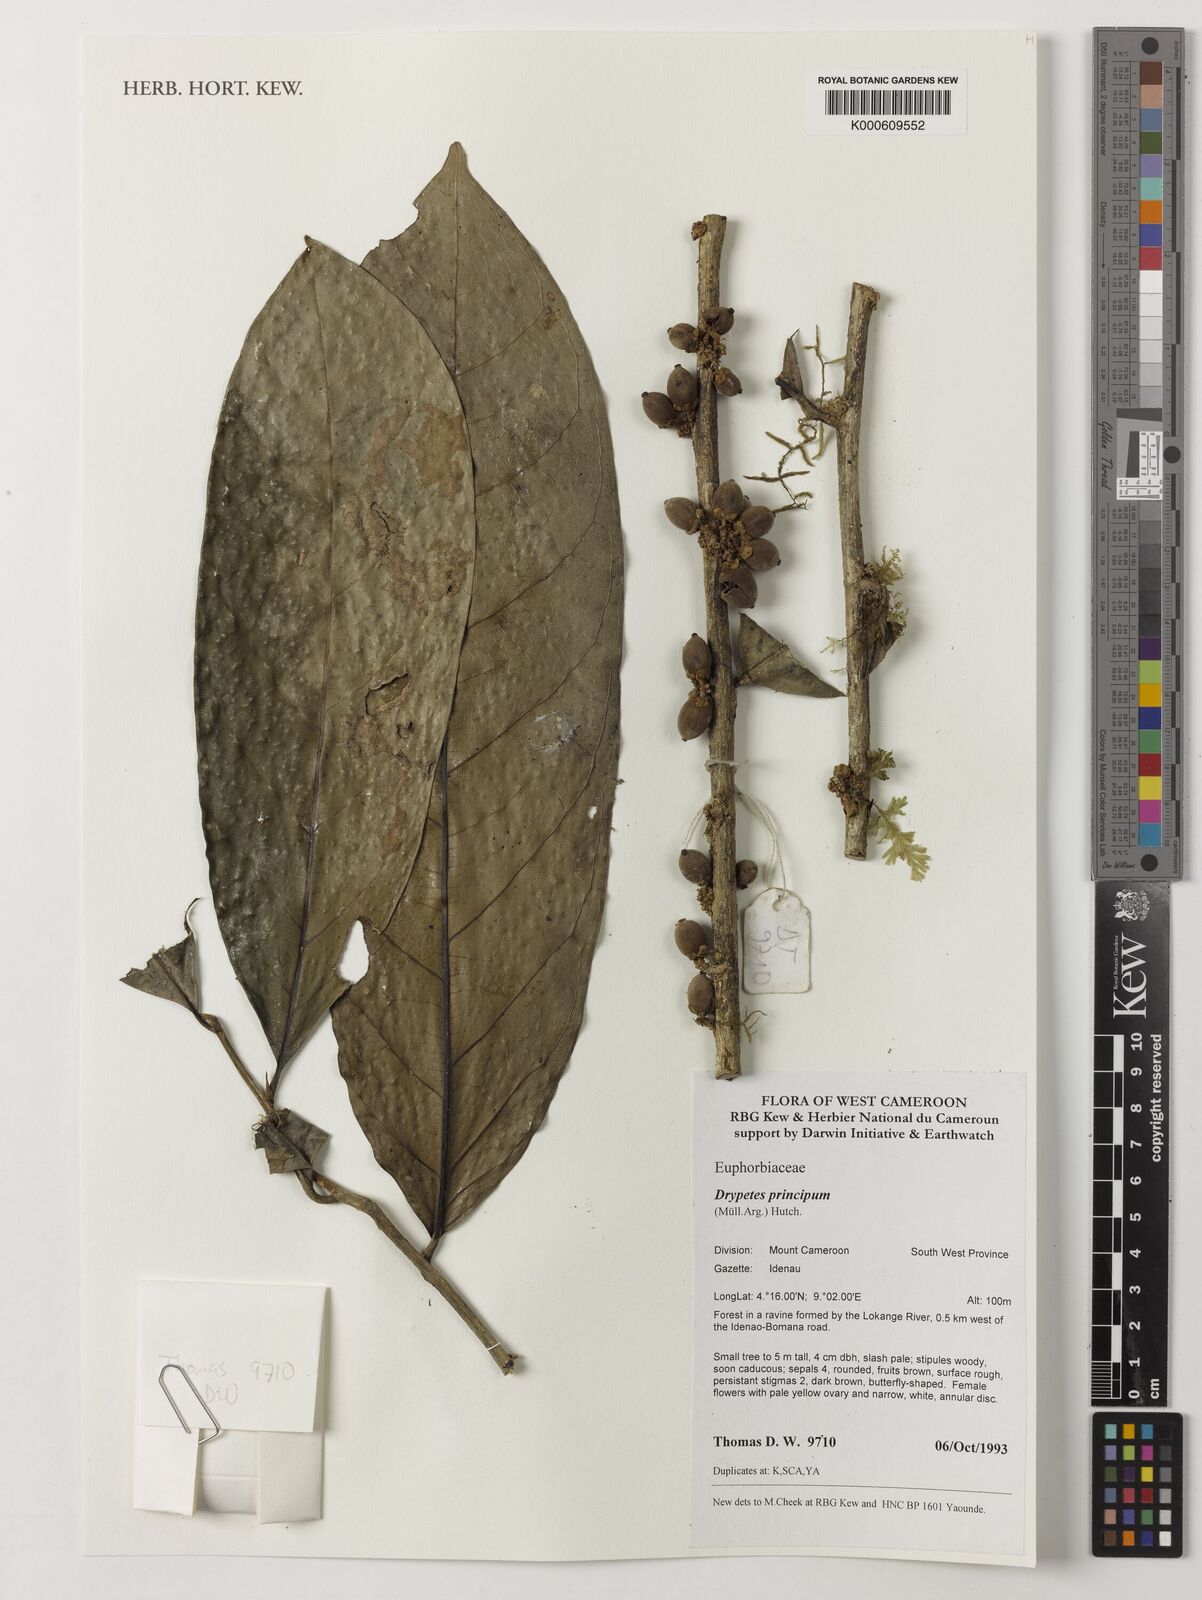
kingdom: Plantae
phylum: Tracheophyta
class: Magnoliopsida
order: Malpighiales
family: Putranjivaceae
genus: Drypetes
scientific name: Drypetes principum
